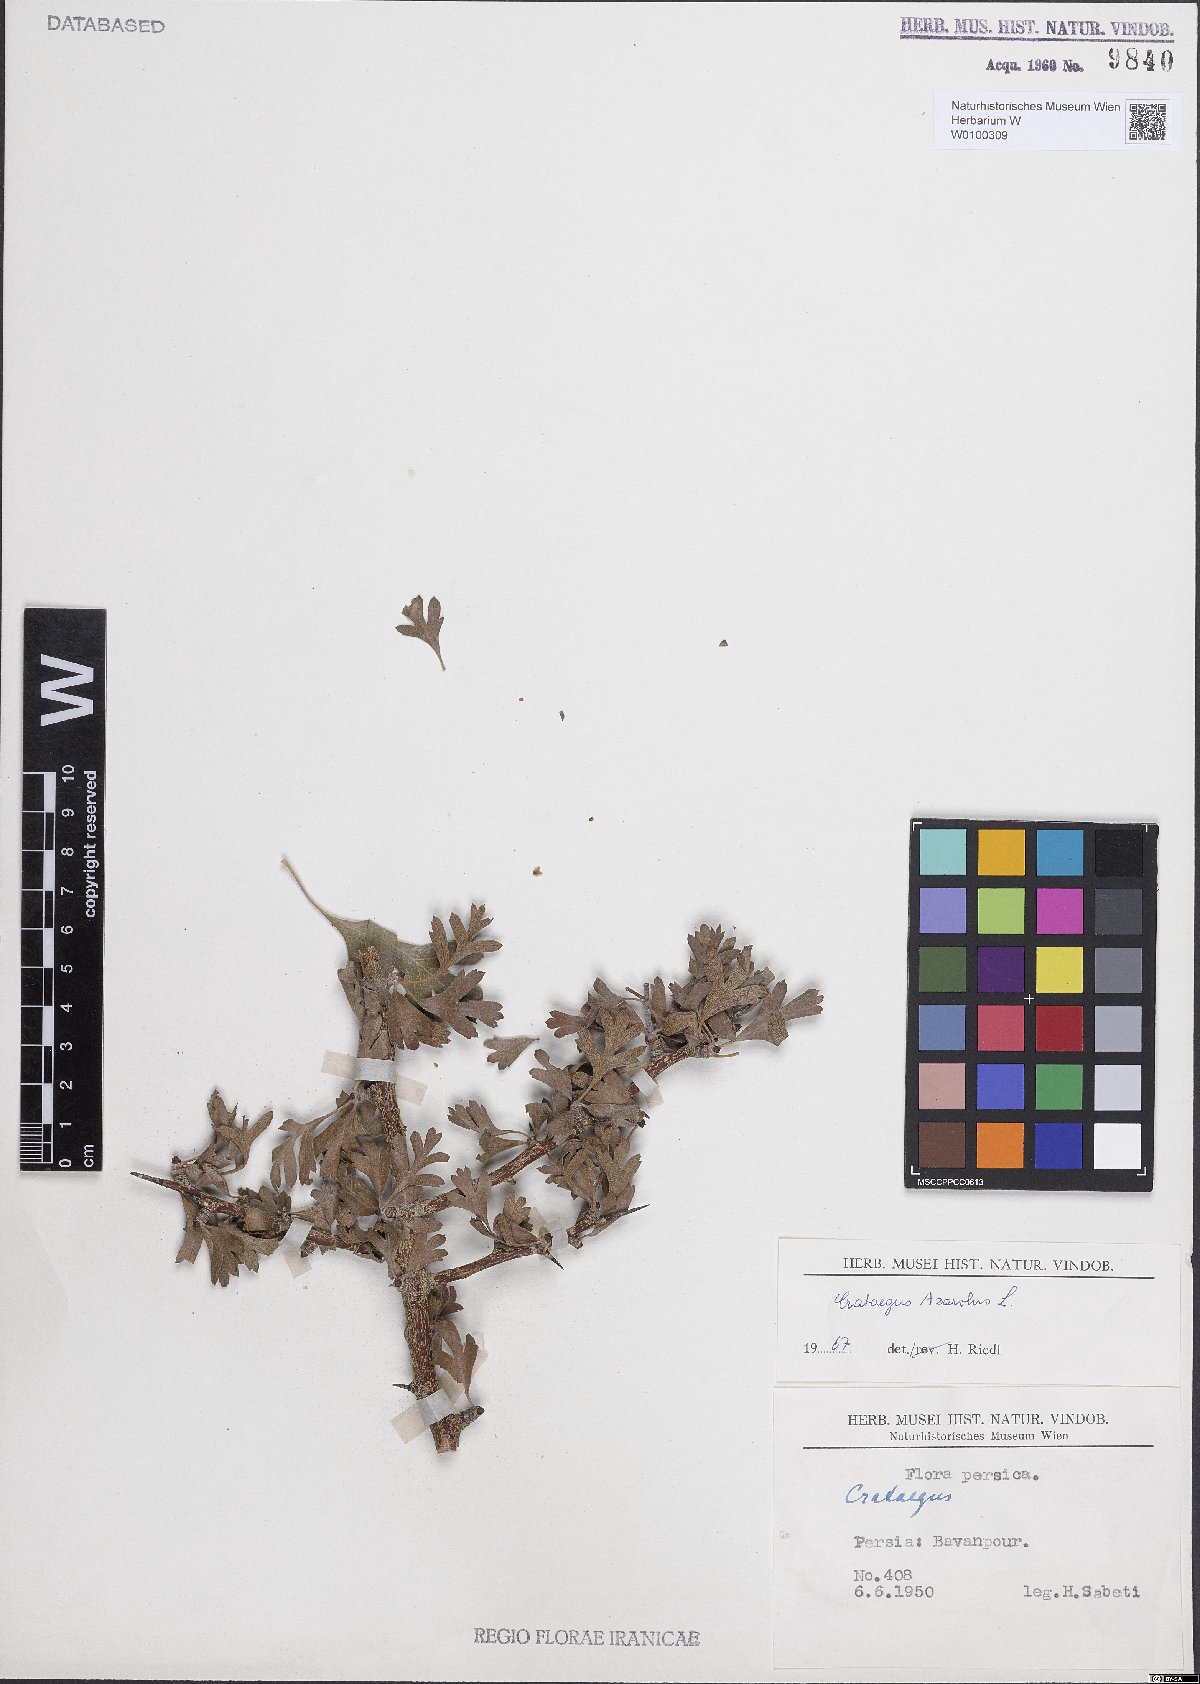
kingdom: Plantae
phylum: Tracheophyta
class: Magnoliopsida
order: Rosales
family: Rosaceae
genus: Crataegus
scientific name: Crataegus azarolus
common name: Azarole
